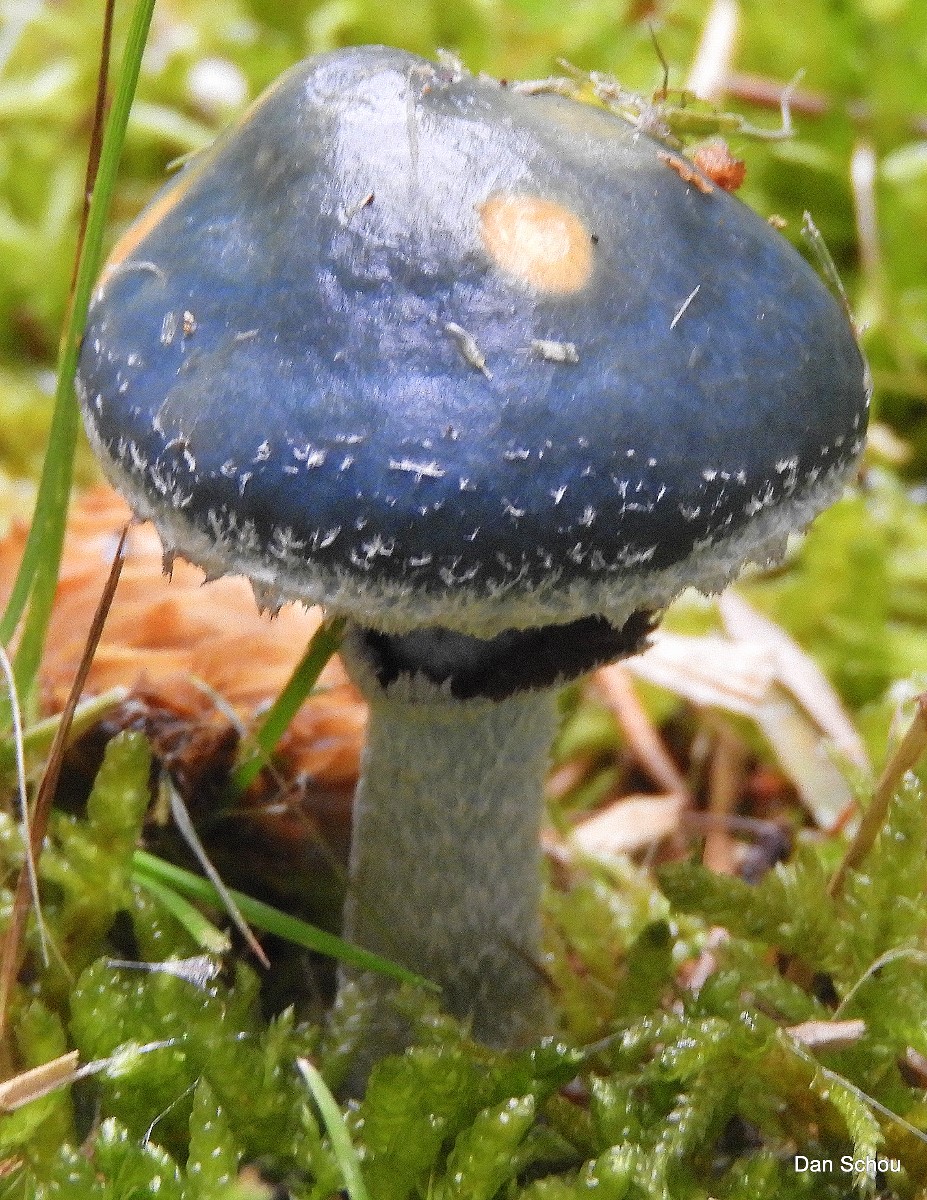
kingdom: Fungi
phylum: Basidiomycota
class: Agaricomycetes
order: Agaricales
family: Strophariaceae
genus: Stropharia
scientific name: Stropharia aeruginosa
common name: spanskgrøn bredblad
